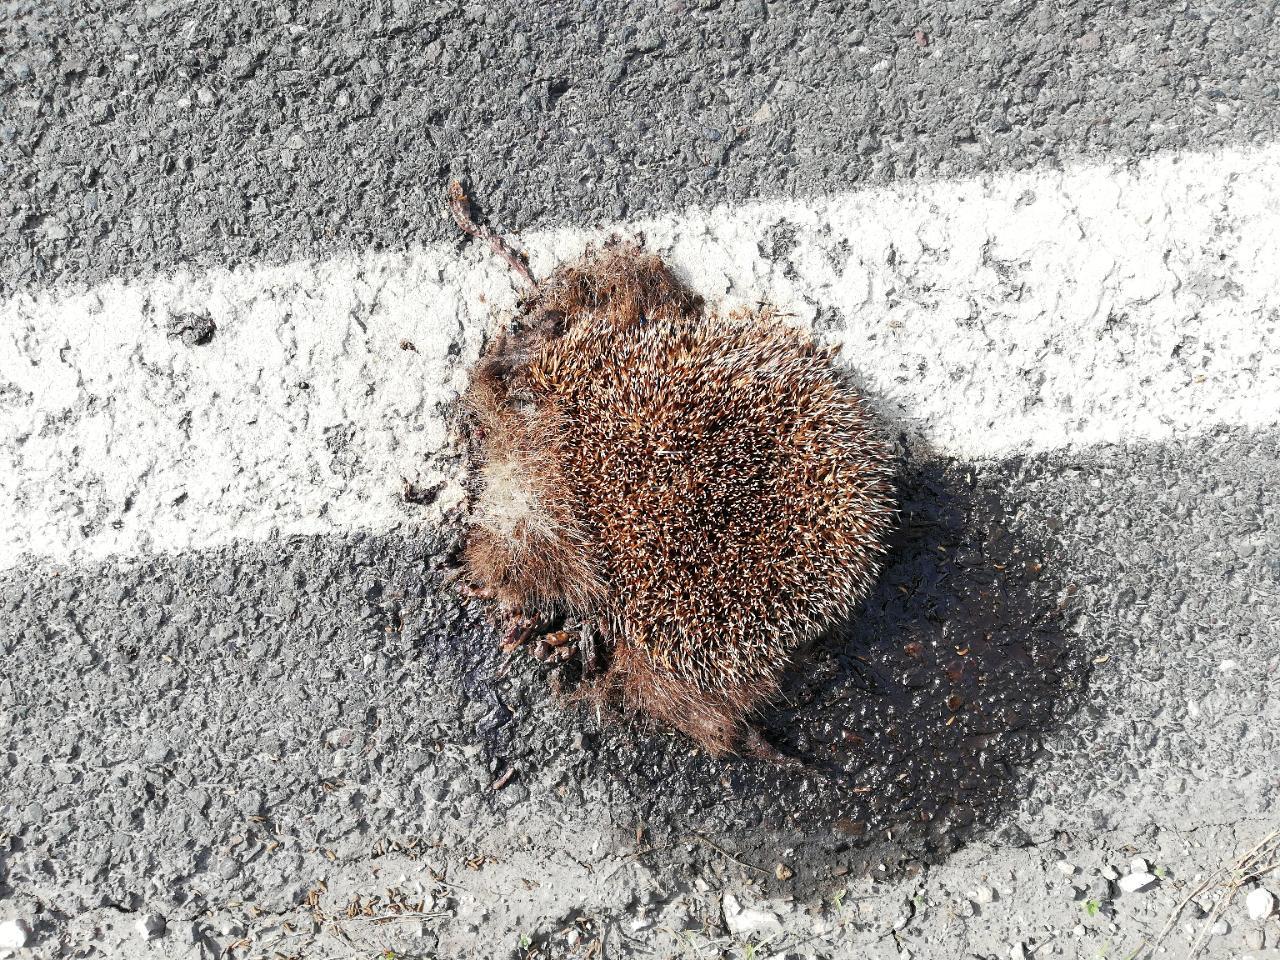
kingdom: Animalia
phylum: Chordata
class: Mammalia
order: Erinaceomorpha
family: Erinaceidae
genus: Erinaceus
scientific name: Erinaceus
